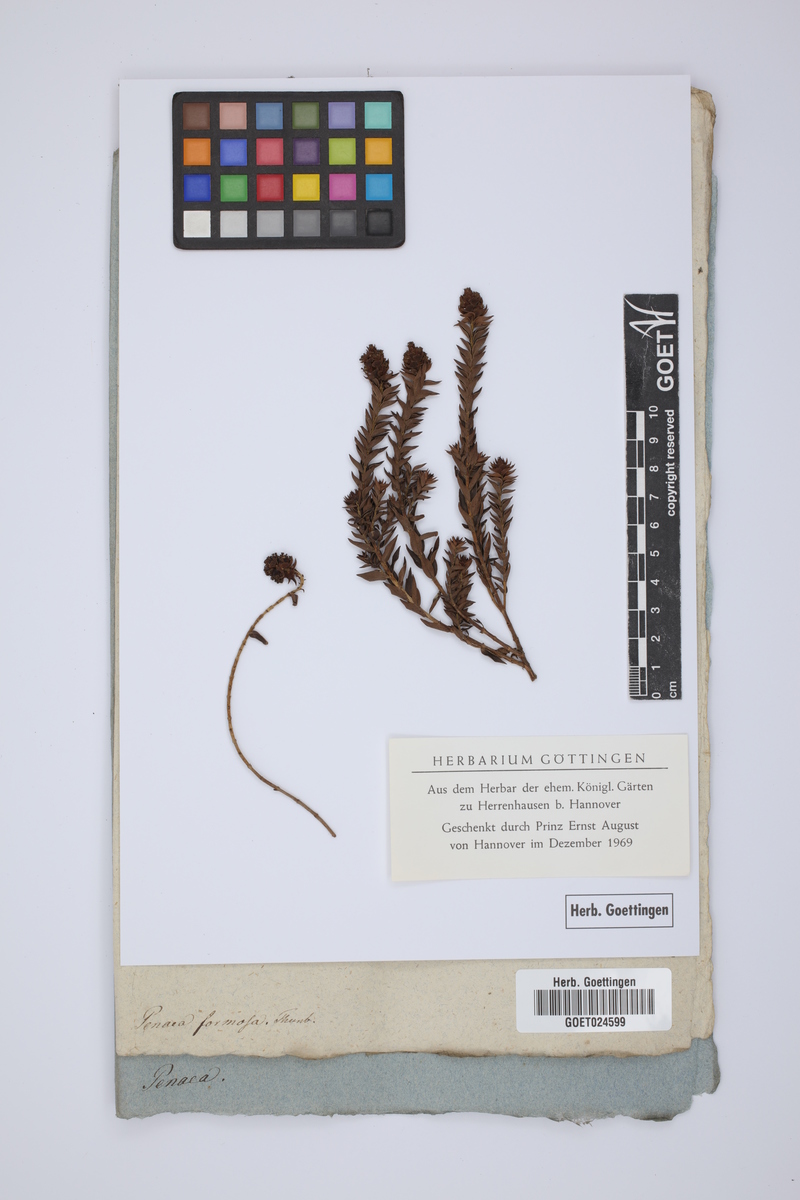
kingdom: Plantae
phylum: Tracheophyta
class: Magnoliopsida
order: Myrtales
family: Penaeaceae
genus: Glischrocolla
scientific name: Glischrocolla formosa
